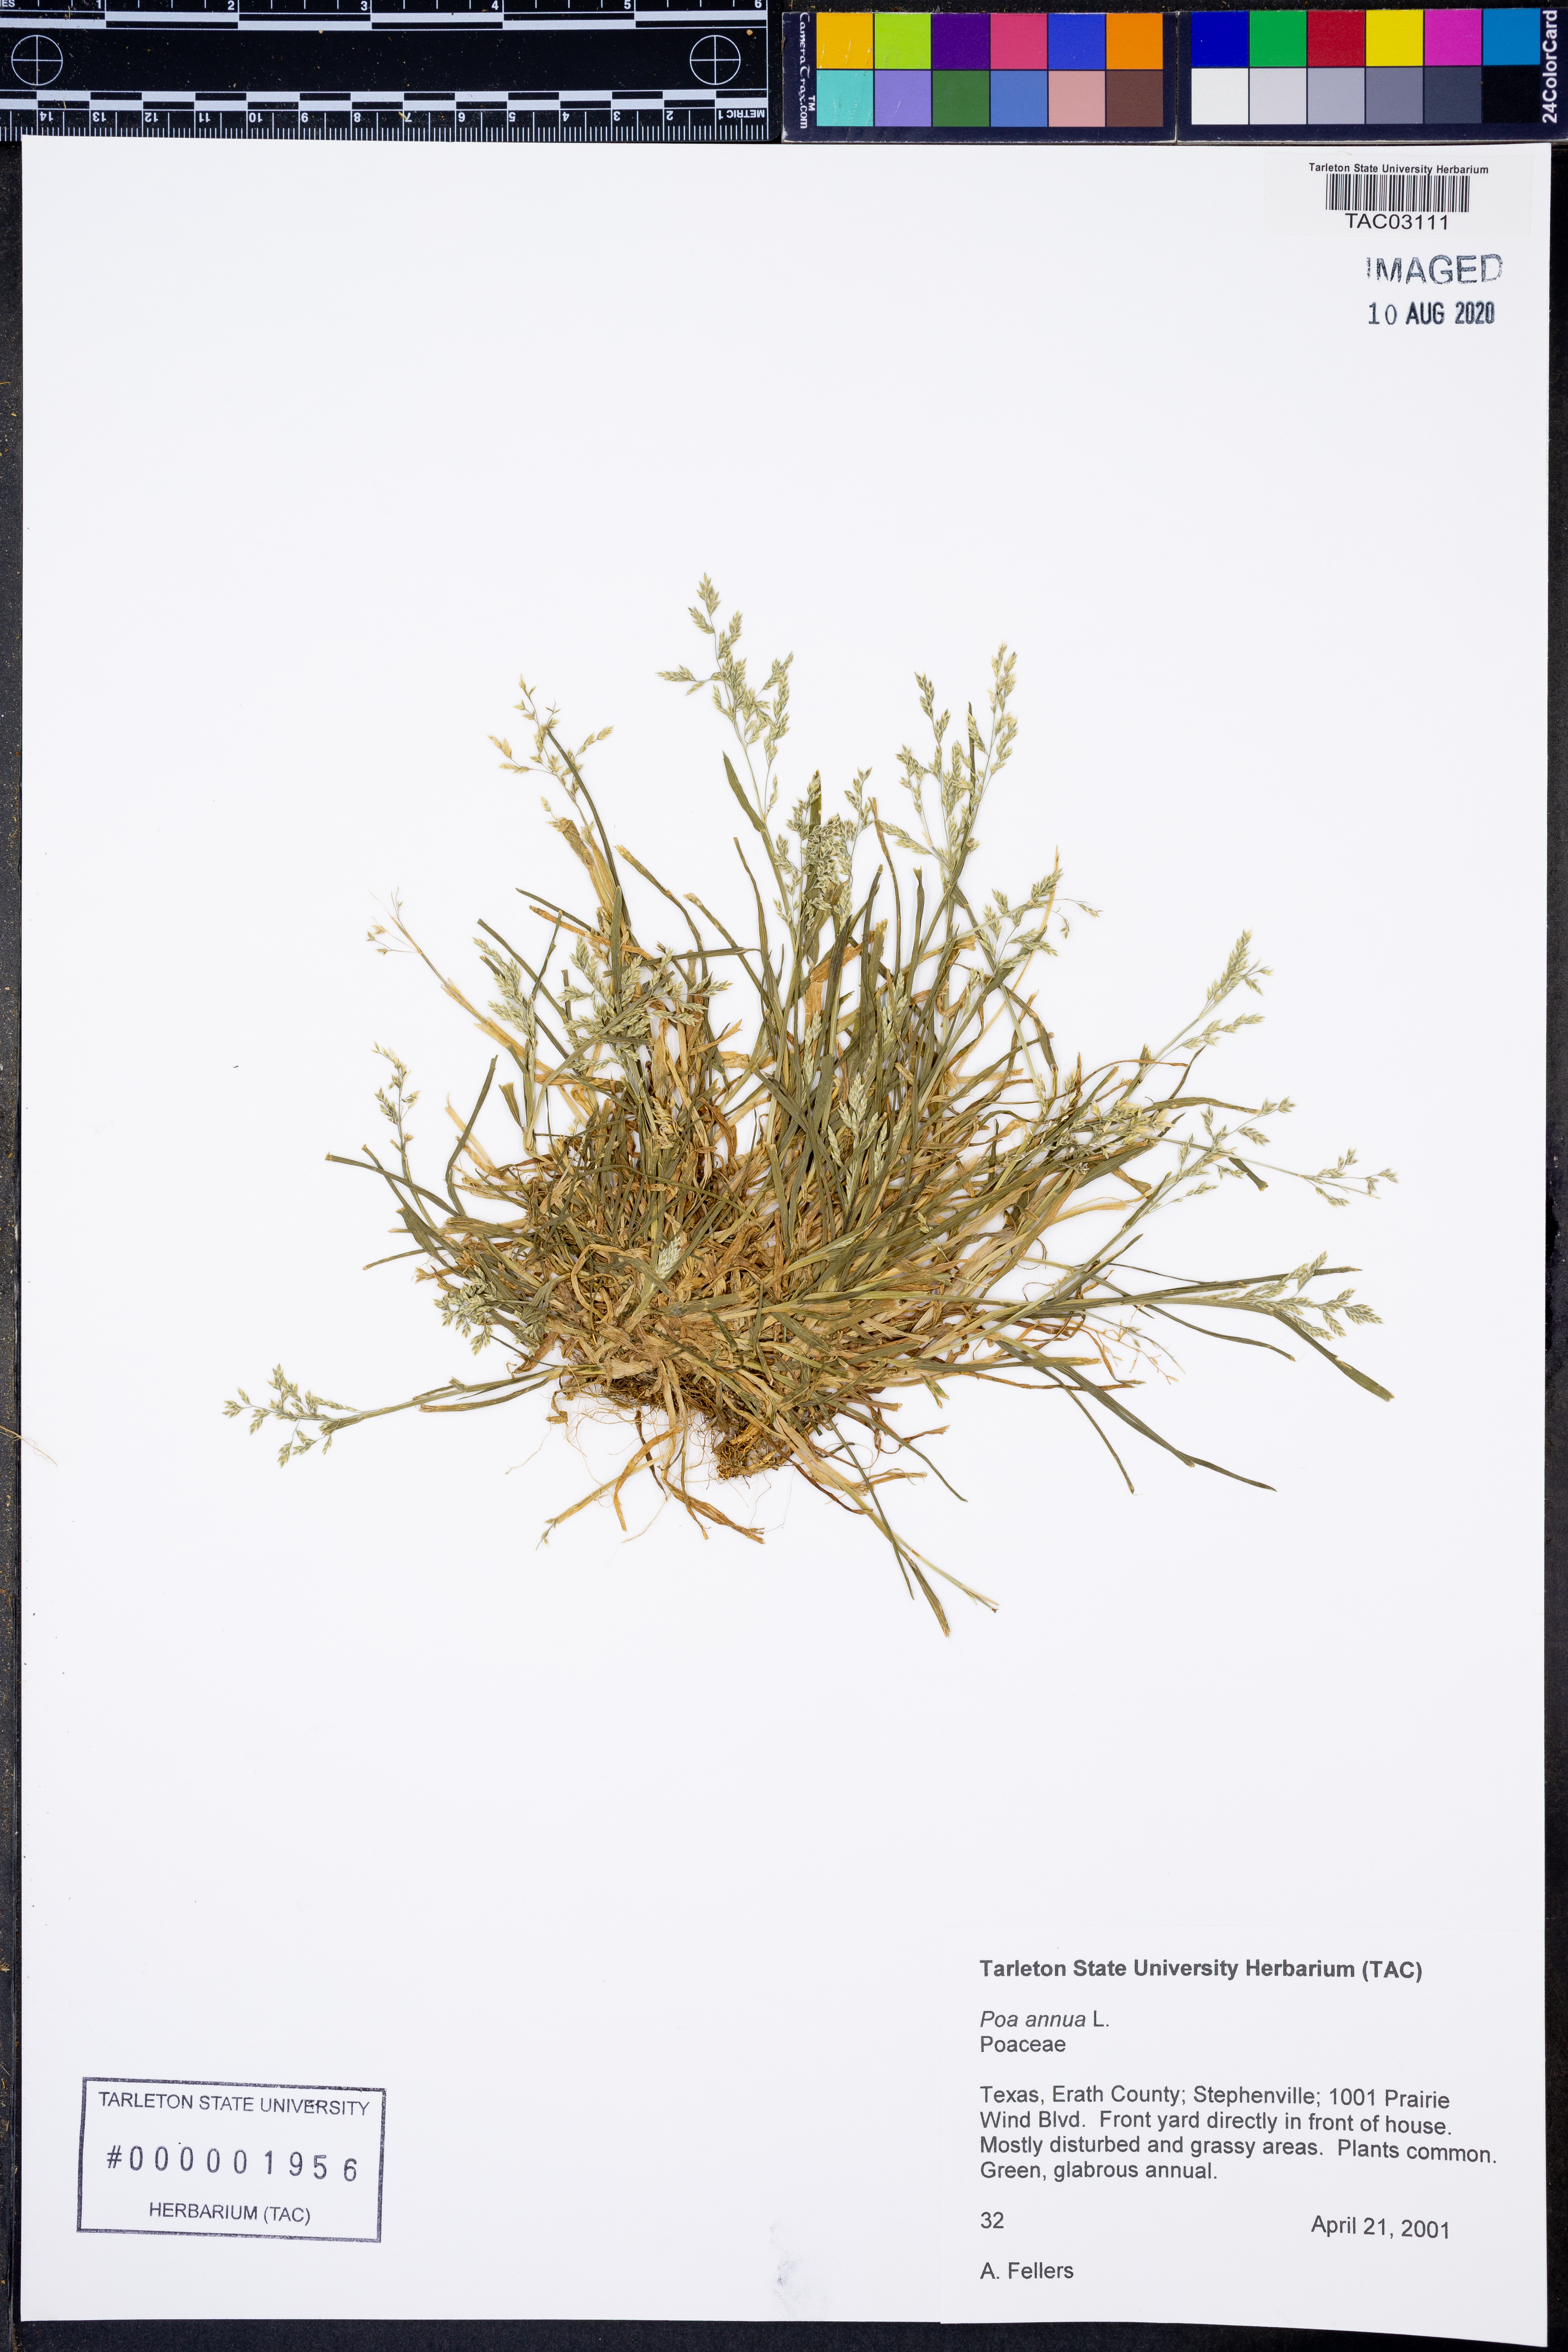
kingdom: Plantae
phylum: Tracheophyta
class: Liliopsida
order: Poales
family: Poaceae
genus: Poa
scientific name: Poa annua
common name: Annual bluegrass
